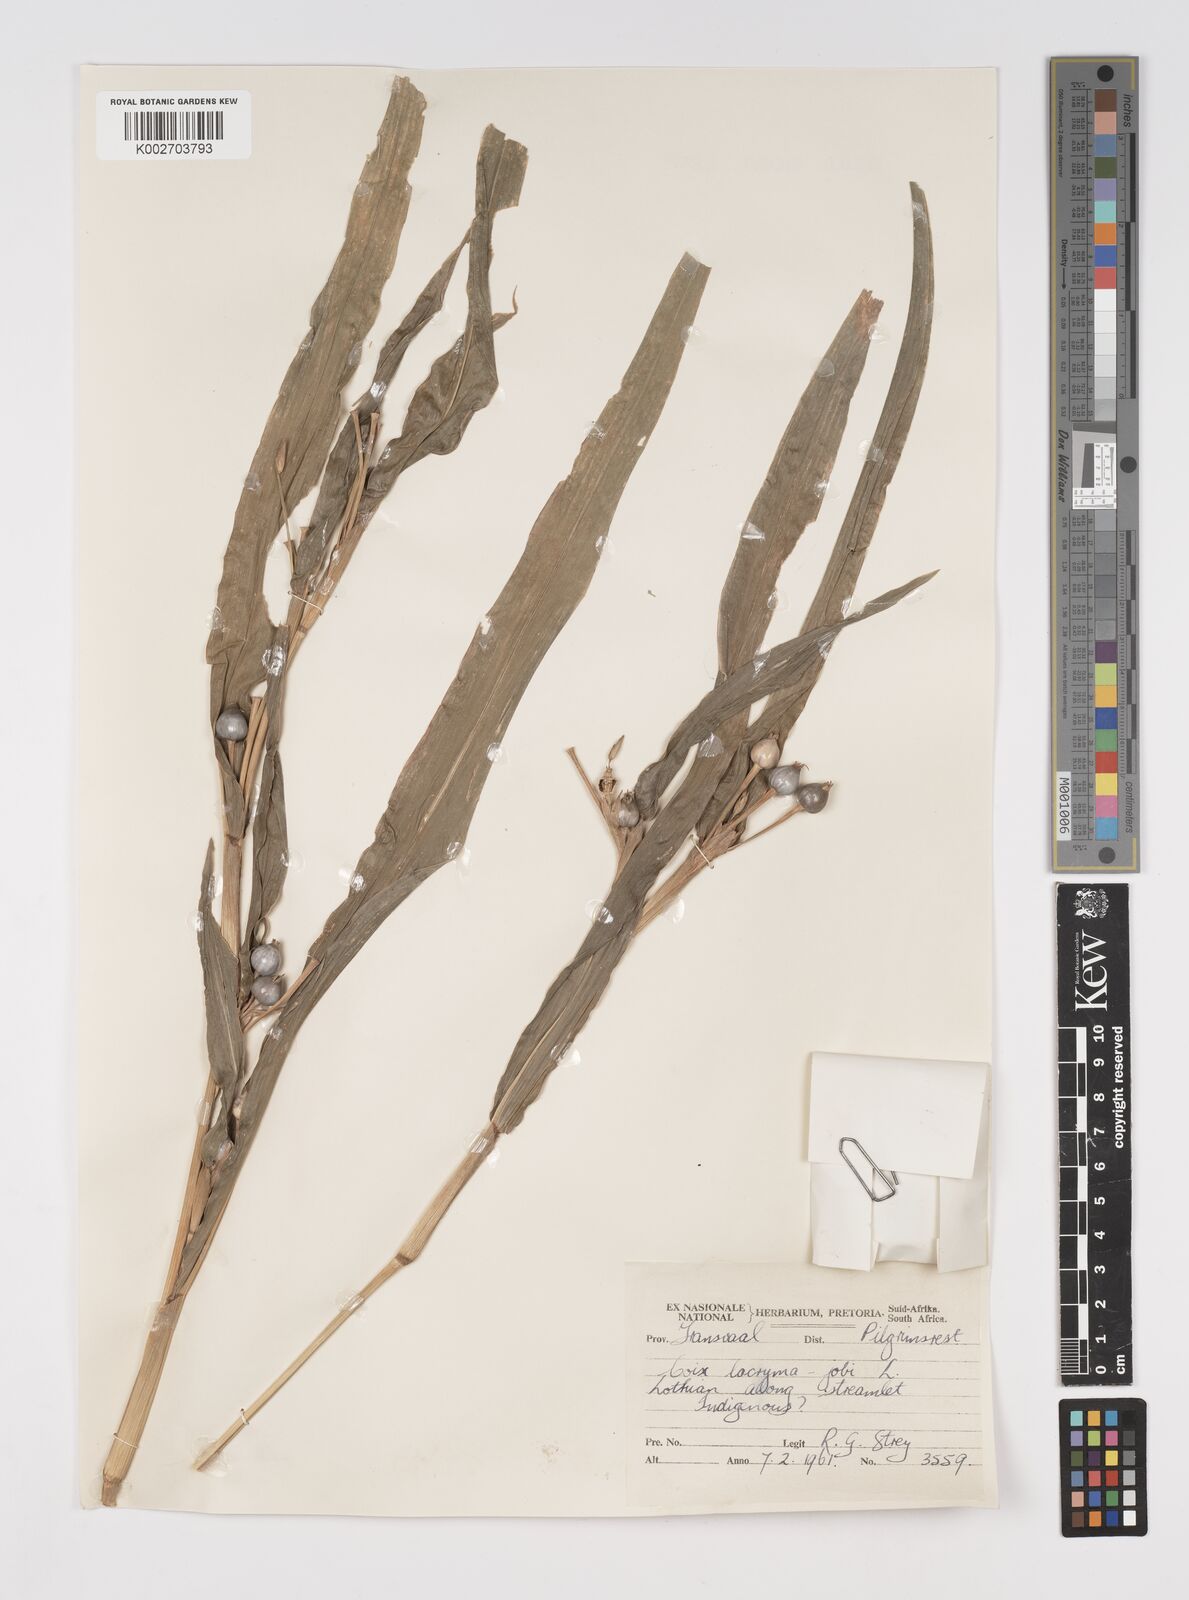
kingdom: Plantae
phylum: Tracheophyta
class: Liliopsida
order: Poales
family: Poaceae
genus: Coix
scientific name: Coix lacryma-jobi
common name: Job's tears
